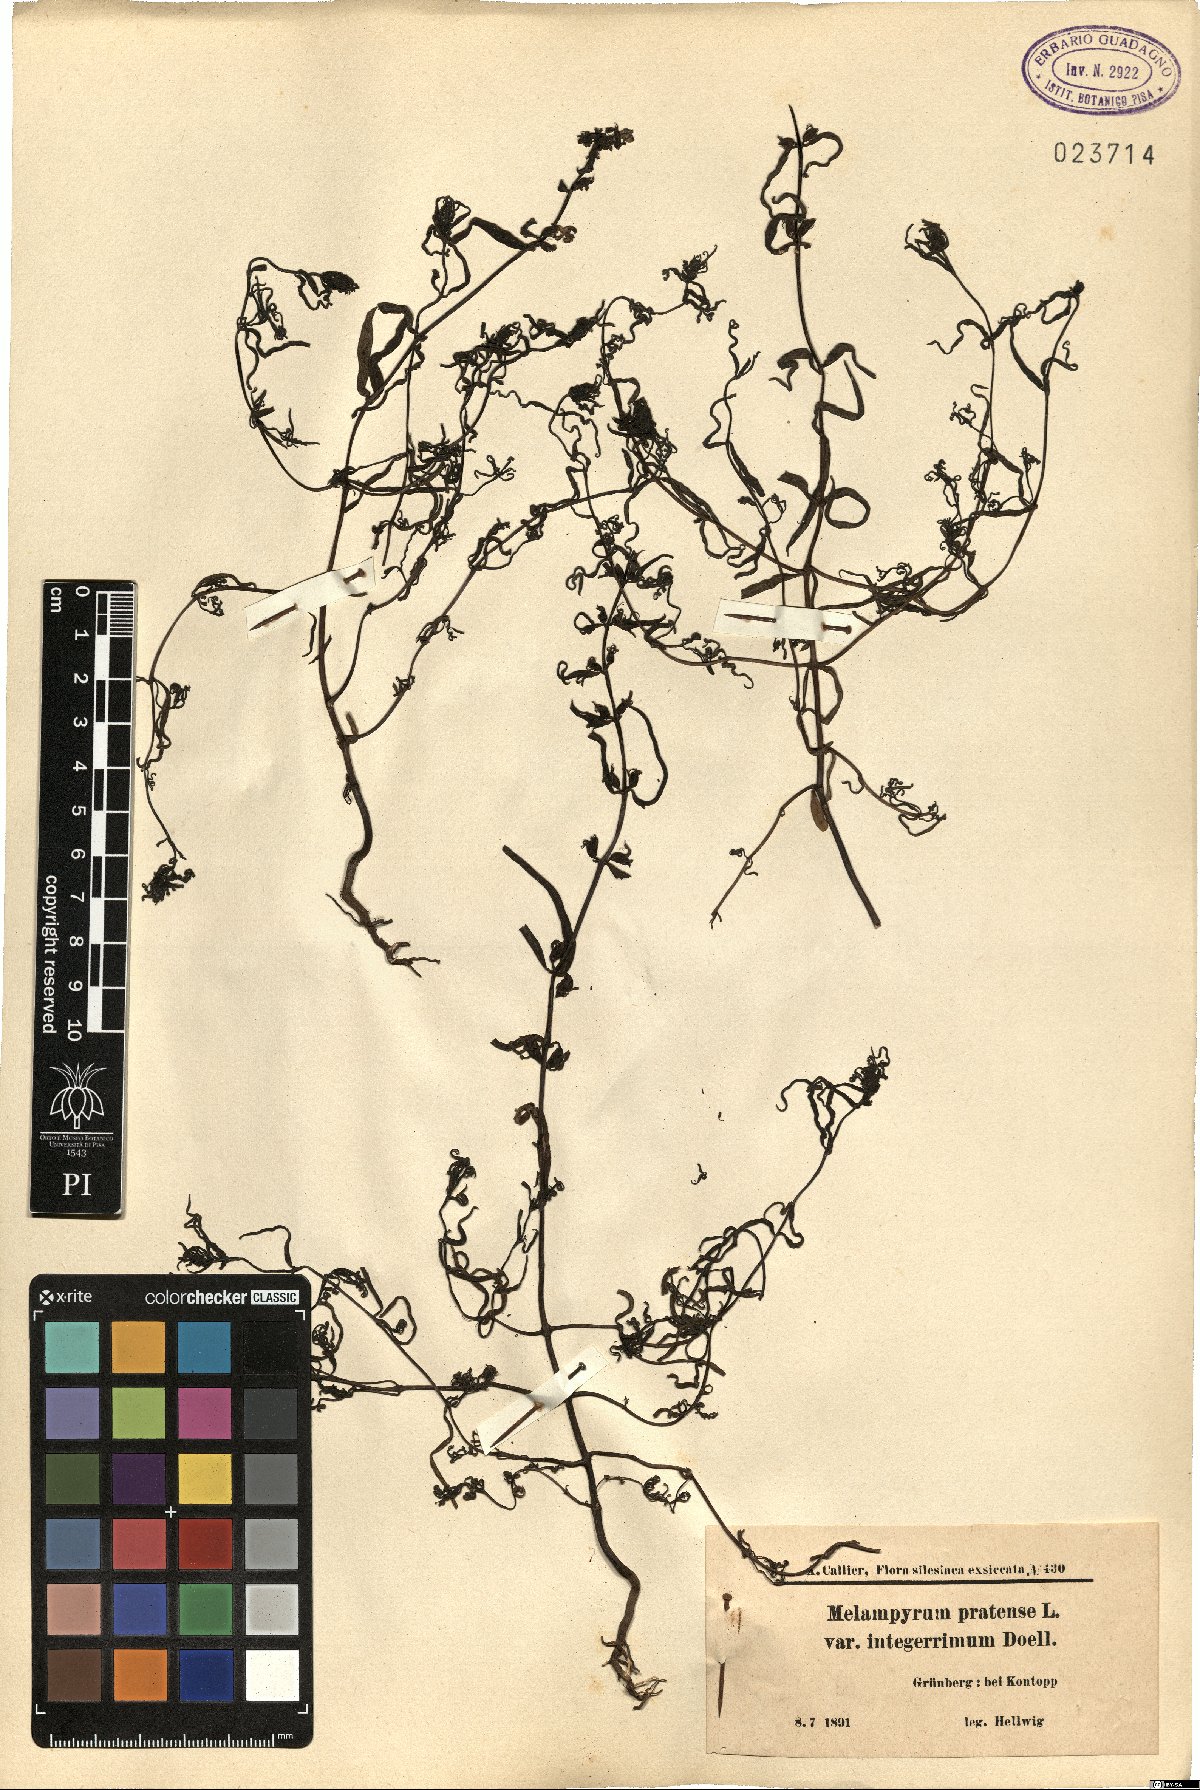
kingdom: Plantae
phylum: Tracheophyta
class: Magnoliopsida
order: Lamiales
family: Orobanchaceae
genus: Melampyrum
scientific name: Melampyrum pratense
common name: Common cow-wheat
